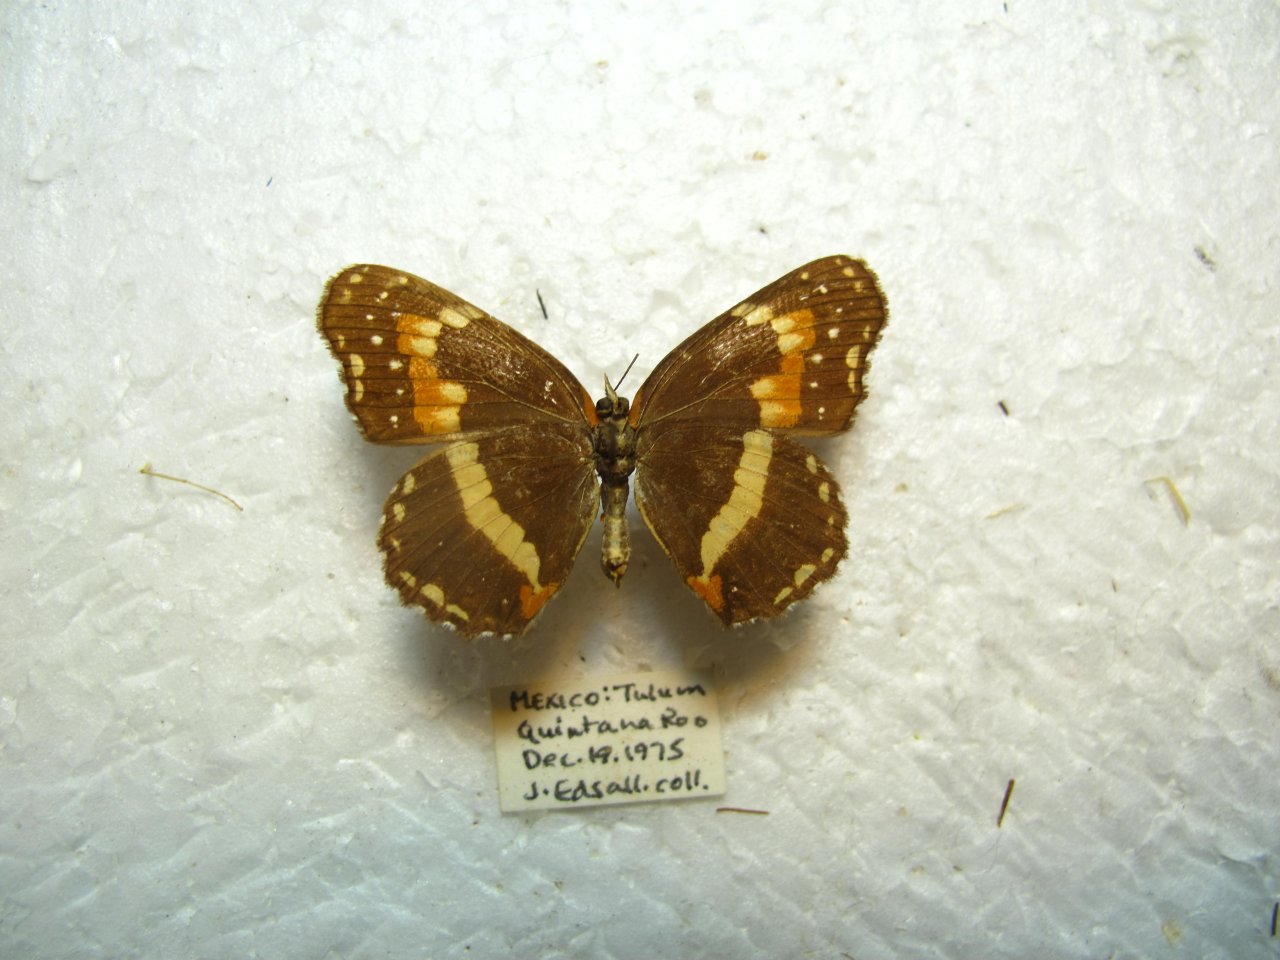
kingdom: Animalia
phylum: Arthropoda
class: Insecta
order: Lepidoptera
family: Nymphalidae
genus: Chlosyne
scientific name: Chlosyne lacinia
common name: Bordered Patch
